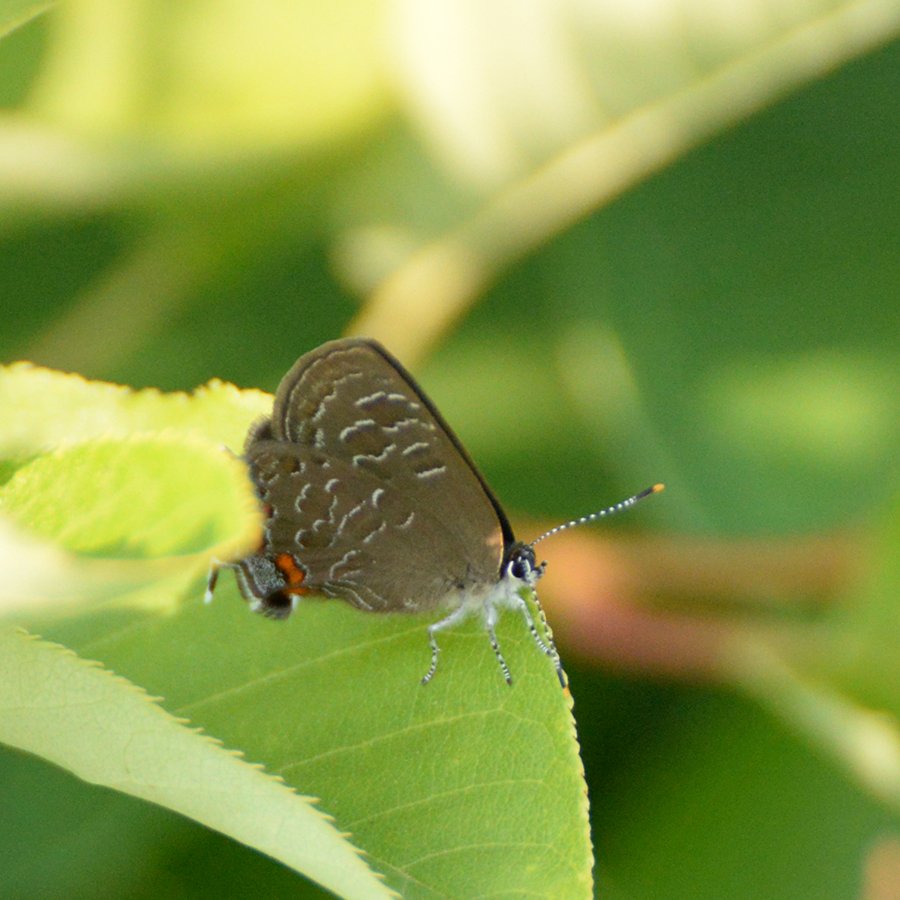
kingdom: Animalia
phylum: Arthropoda
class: Insecta
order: Lepidoptera
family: Lycaenidae
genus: Satyrium
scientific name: Satyrium liparops
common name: Striped Hairstreak
